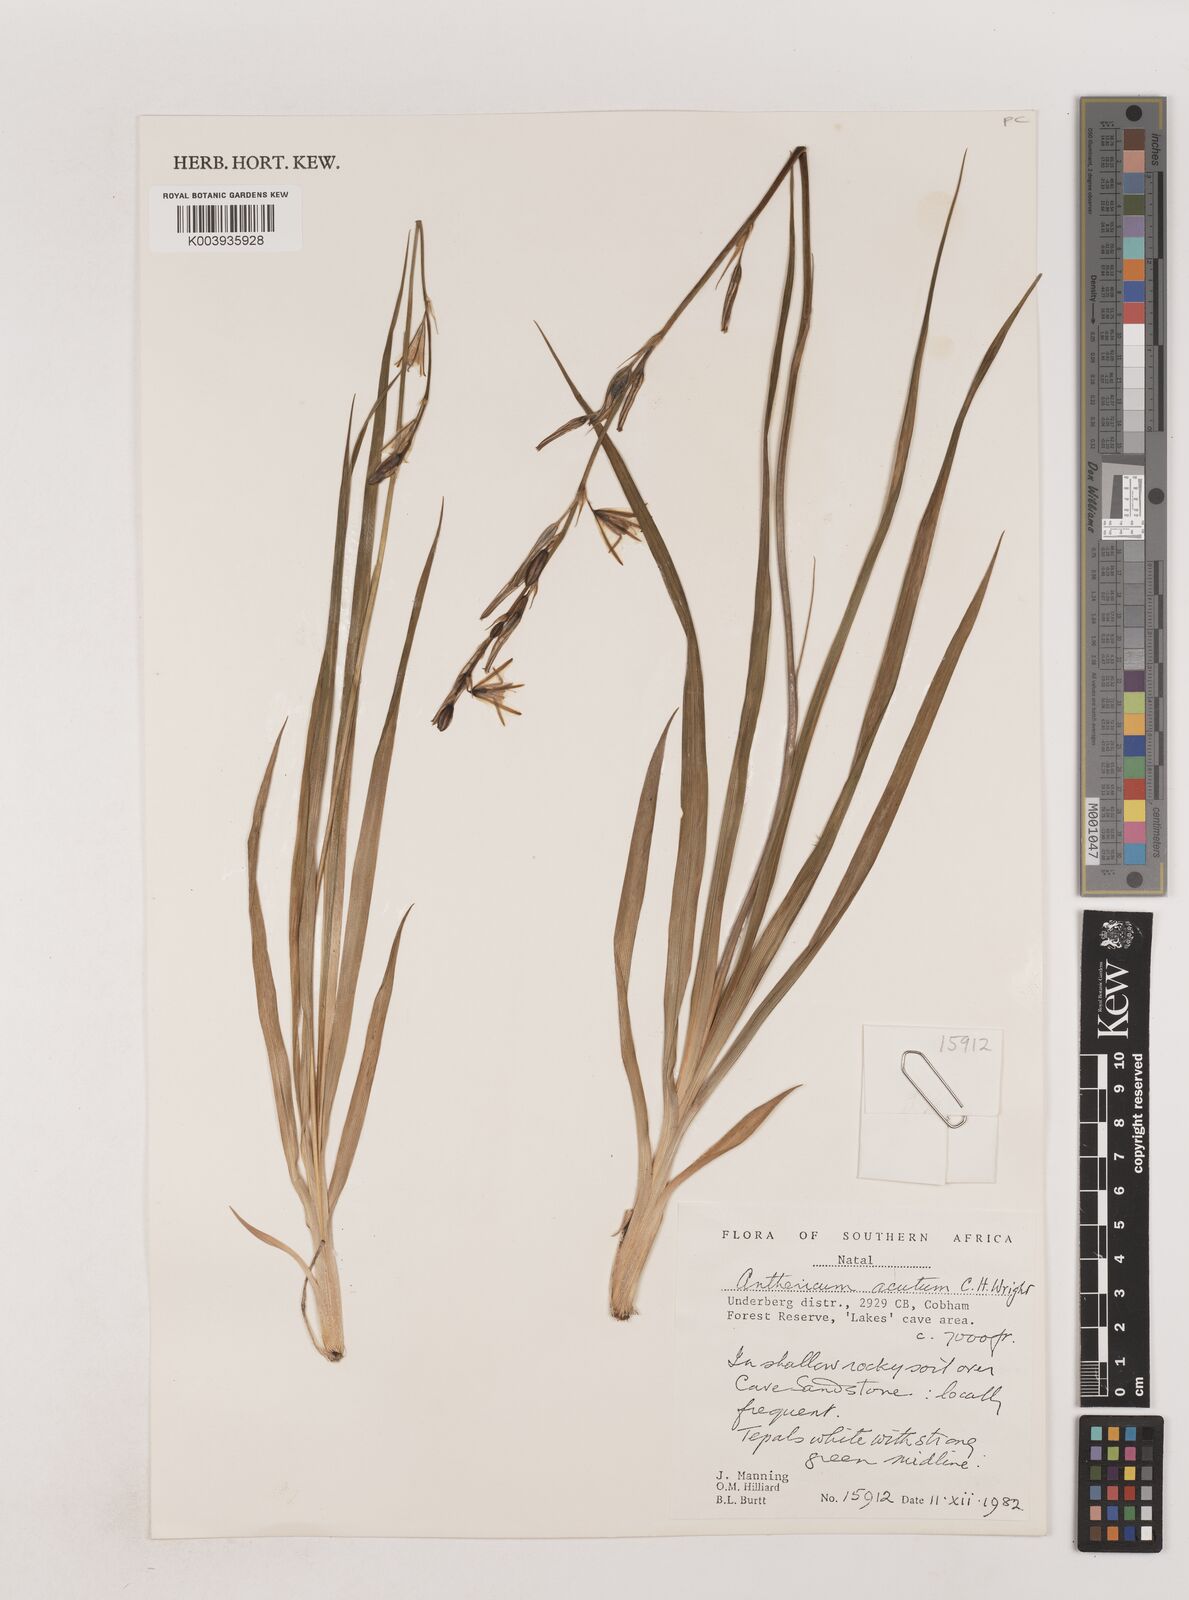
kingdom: Plantae
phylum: Tracheophyta
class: Liliopsida
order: Asparagales
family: Asparagaceae
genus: Chlorophytum
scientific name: Chlorophytum acutum
